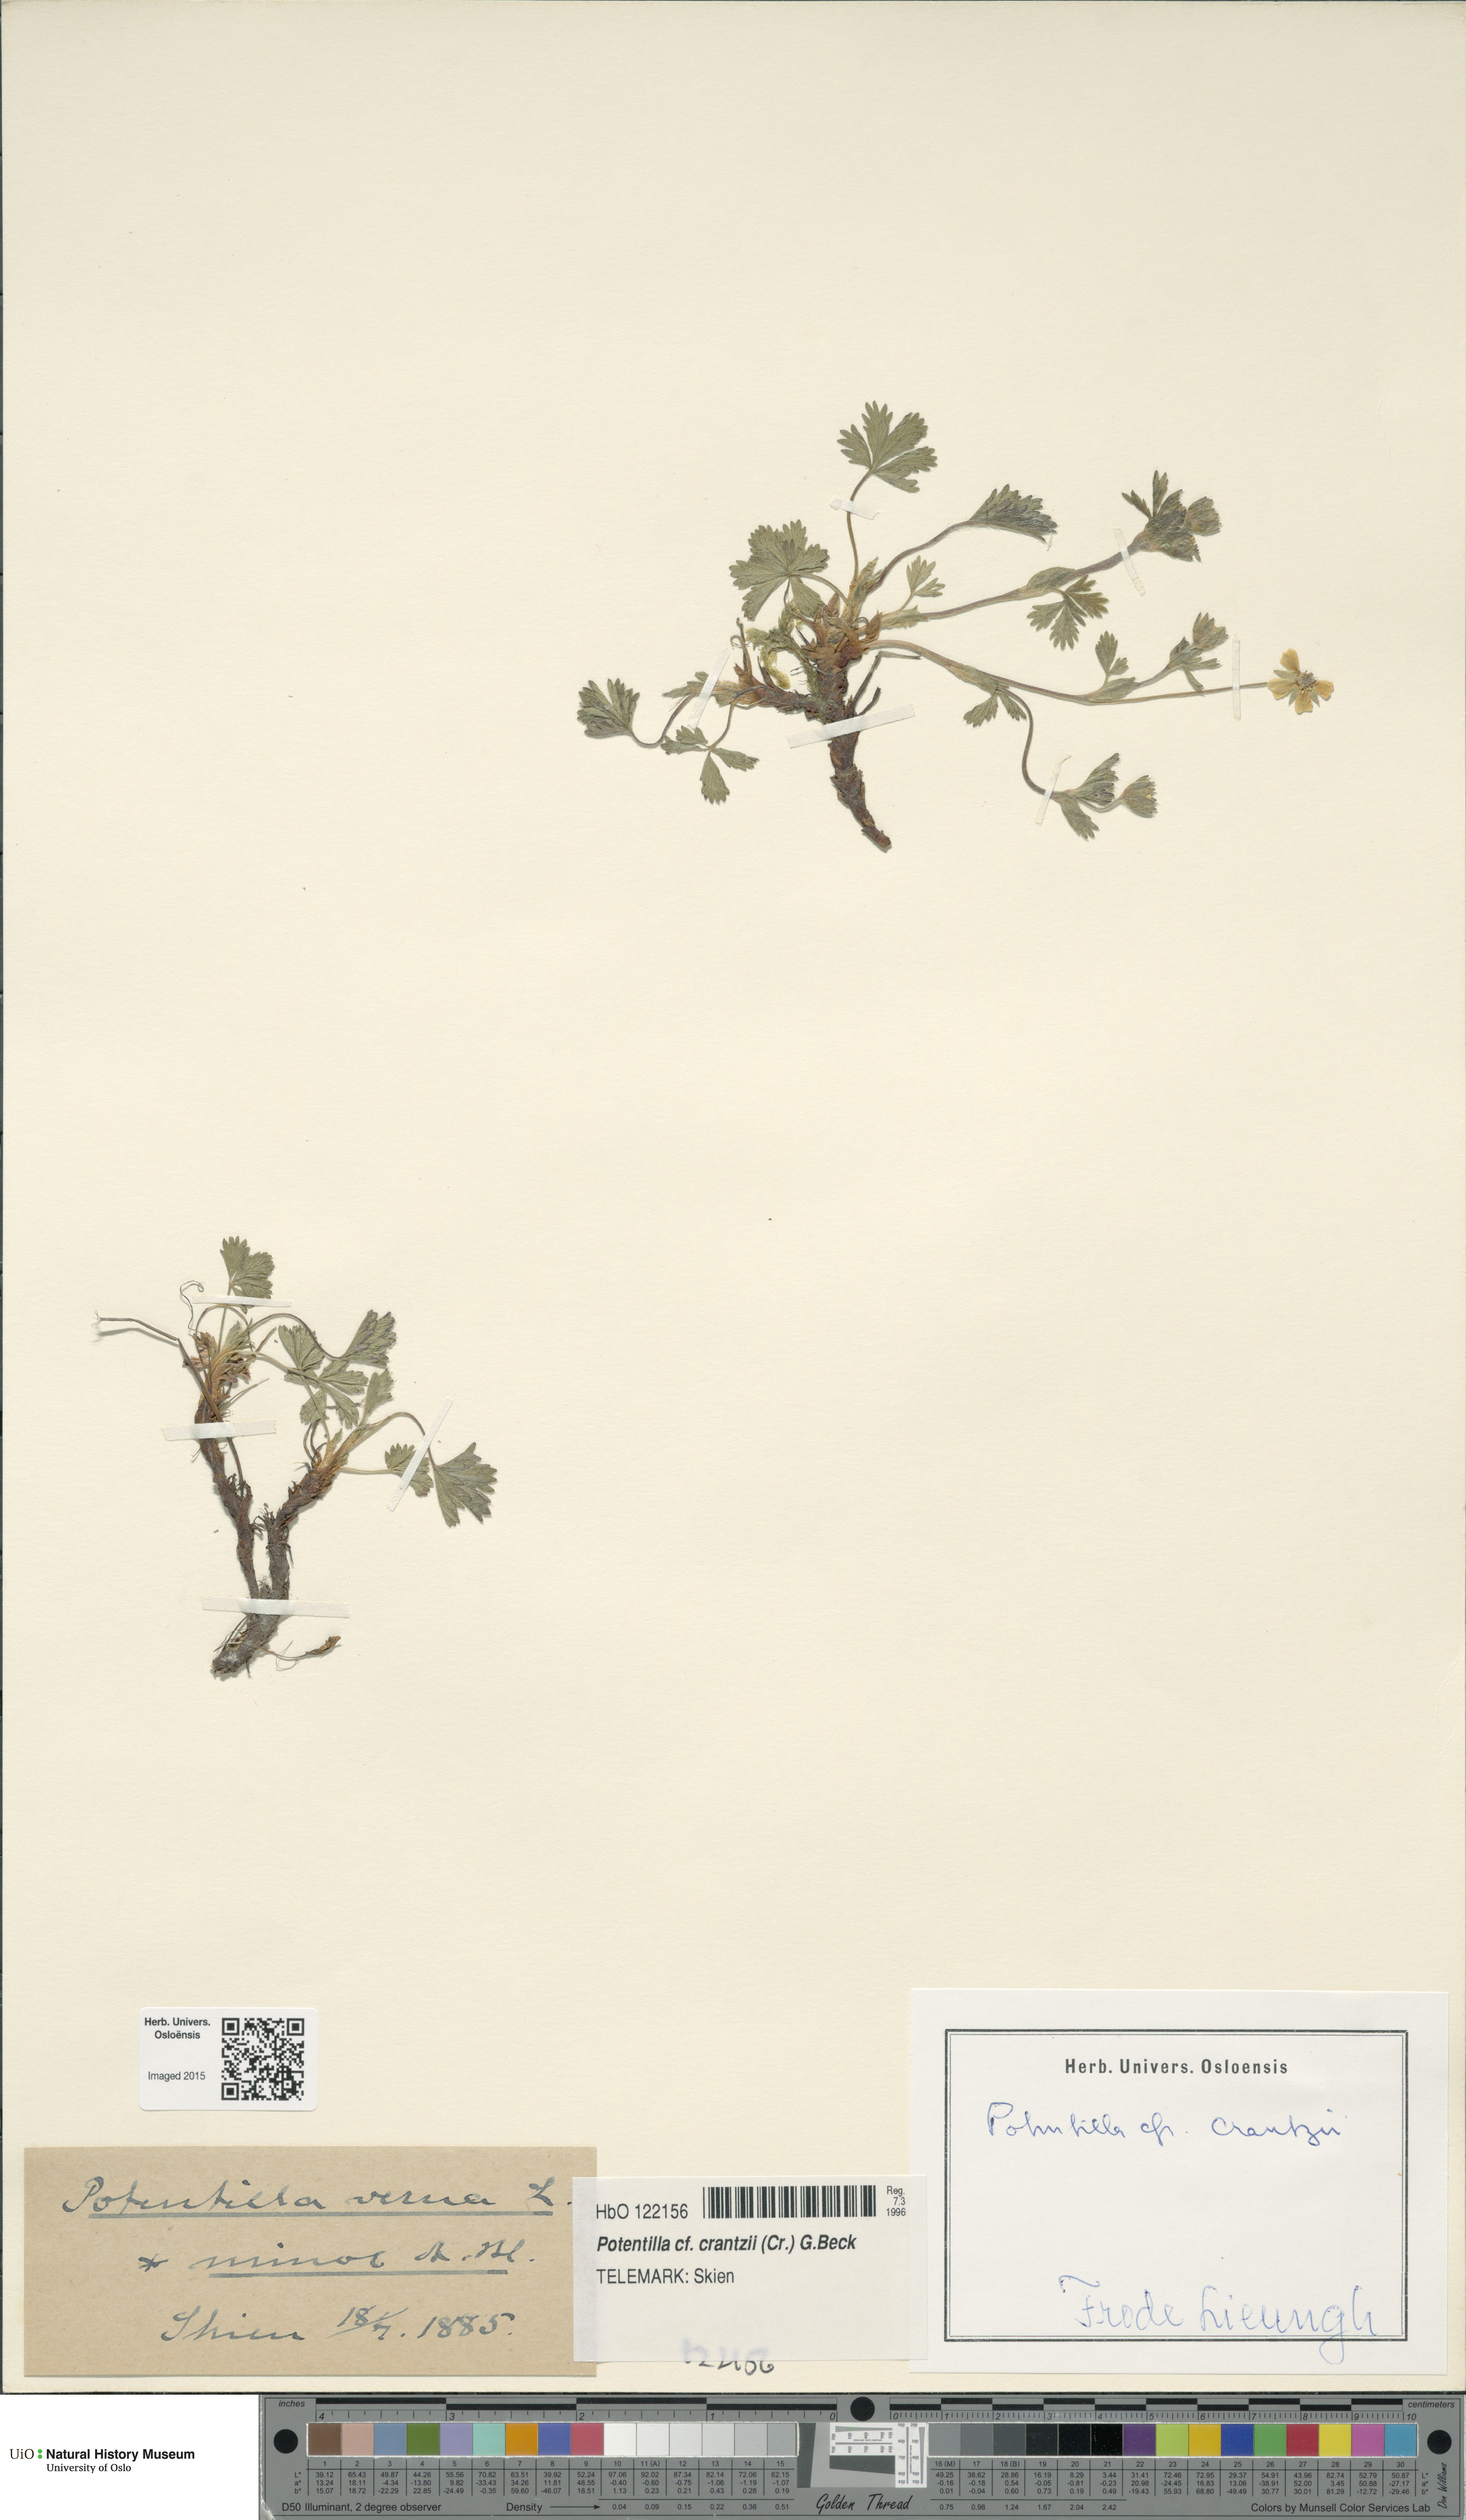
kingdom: Plantae
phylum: Tracheophyta
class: Magnoliopsida
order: Rosales
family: Rosaceae
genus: Potentilla
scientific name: Potentilla crantzii
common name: Alpine cinquefoil
